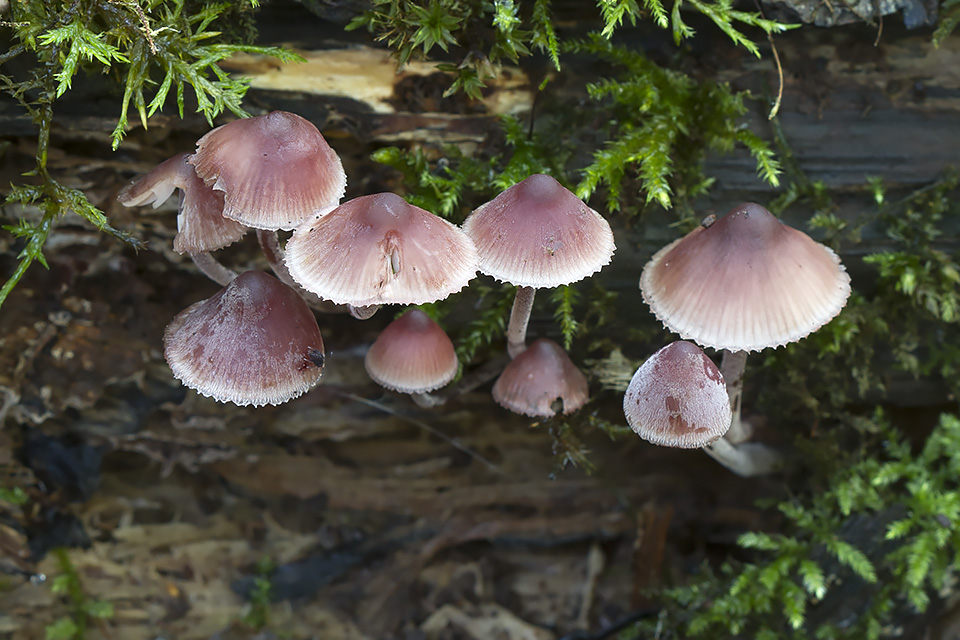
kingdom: Fungi
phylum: Basidiomycota
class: Agaricomycetes
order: Agaricales
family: Mycenaceae
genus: Mycena
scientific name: Mycena haematopus
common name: blødende huesvamp
